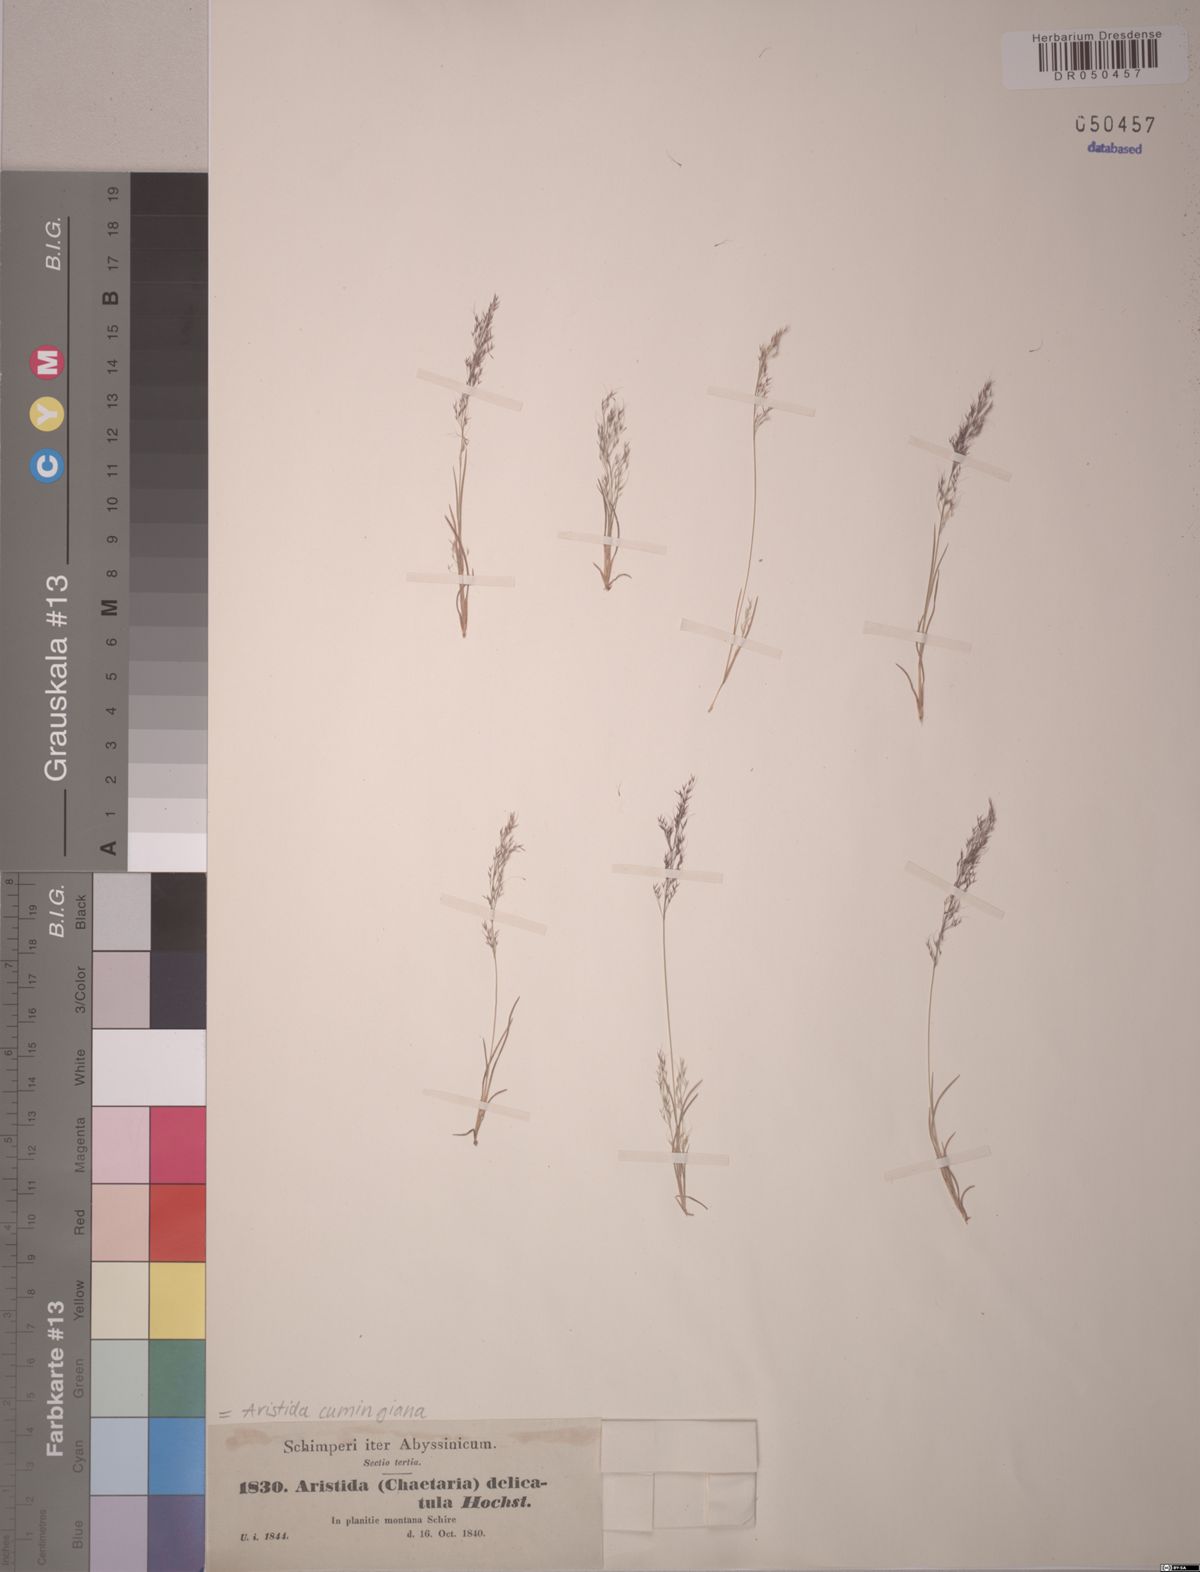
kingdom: Plantae
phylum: Tracheophyta
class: Liliopsida
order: Poales
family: Poaceae
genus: Aristida
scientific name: Aristida cumingiana
